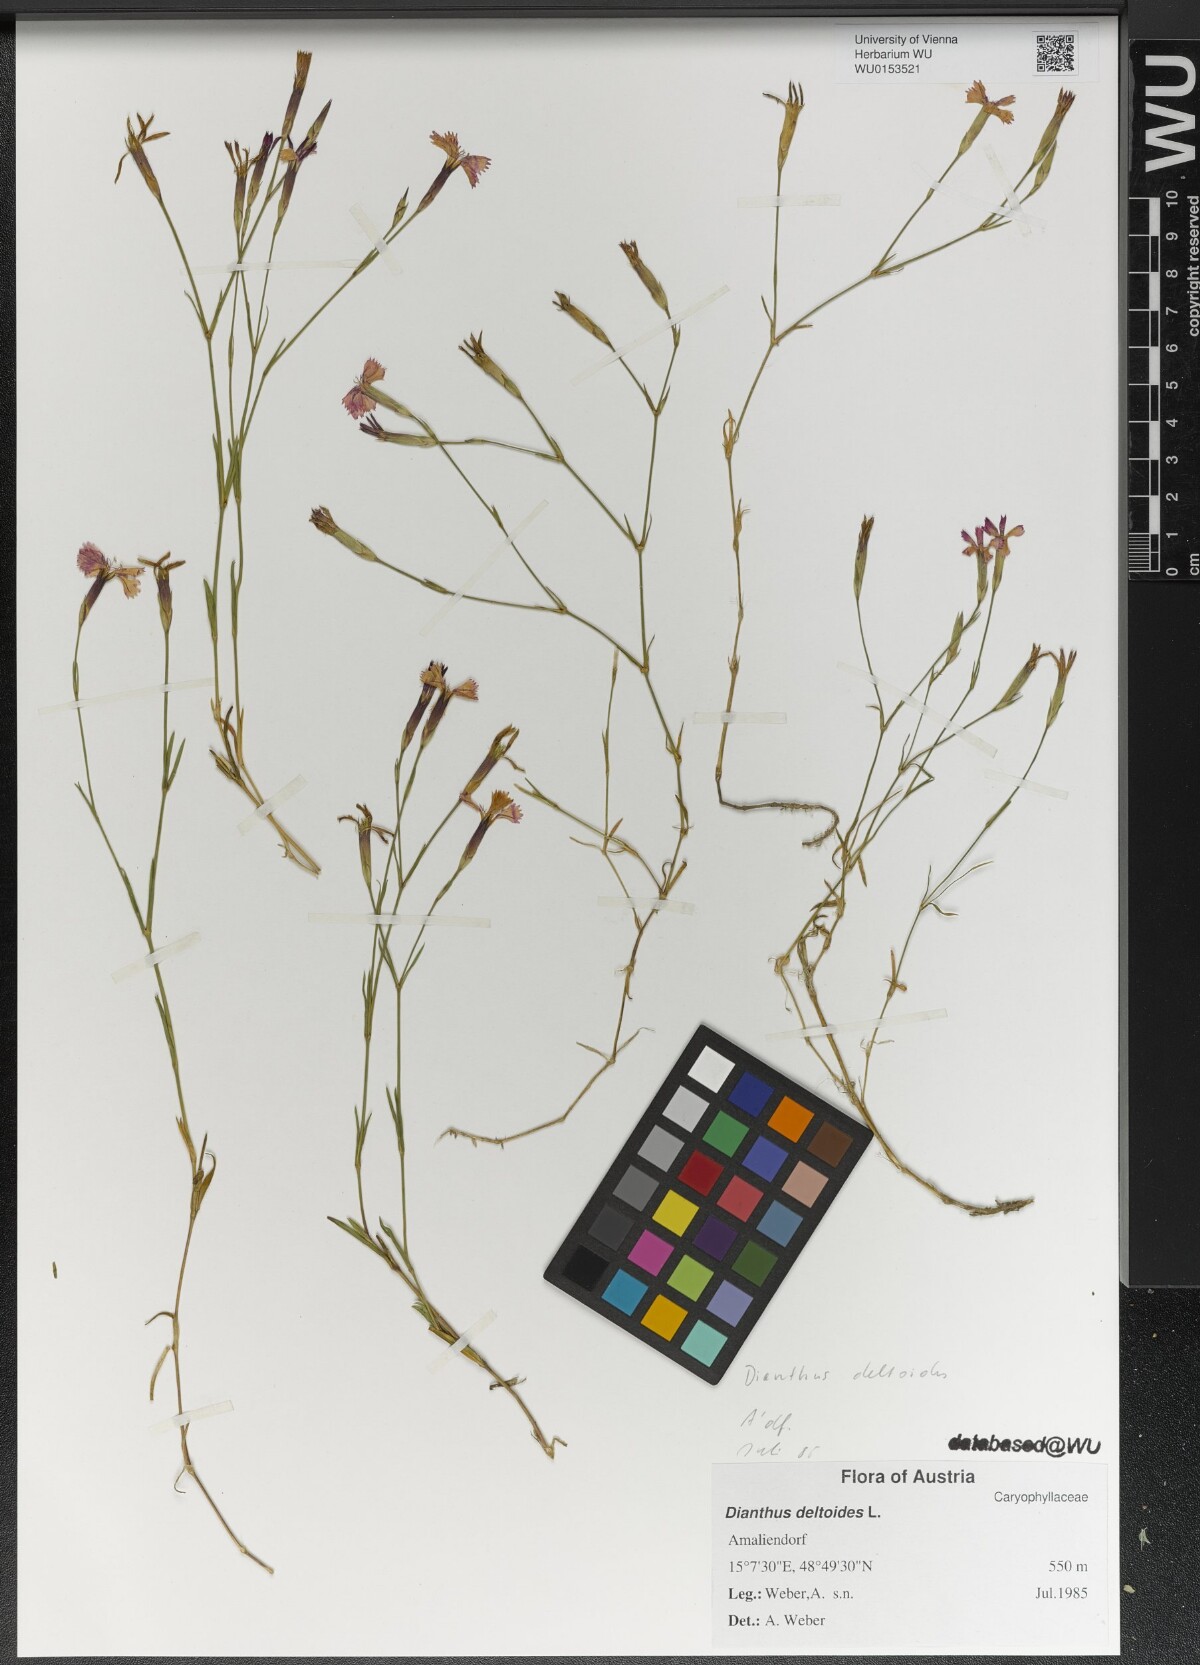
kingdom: Plantae
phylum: Tracheophyta
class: Magnoliopsida
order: Caryophyllales
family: Caryophyllaceae
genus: Dianthus
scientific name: Dianthus deltoides
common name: Maiden pink
